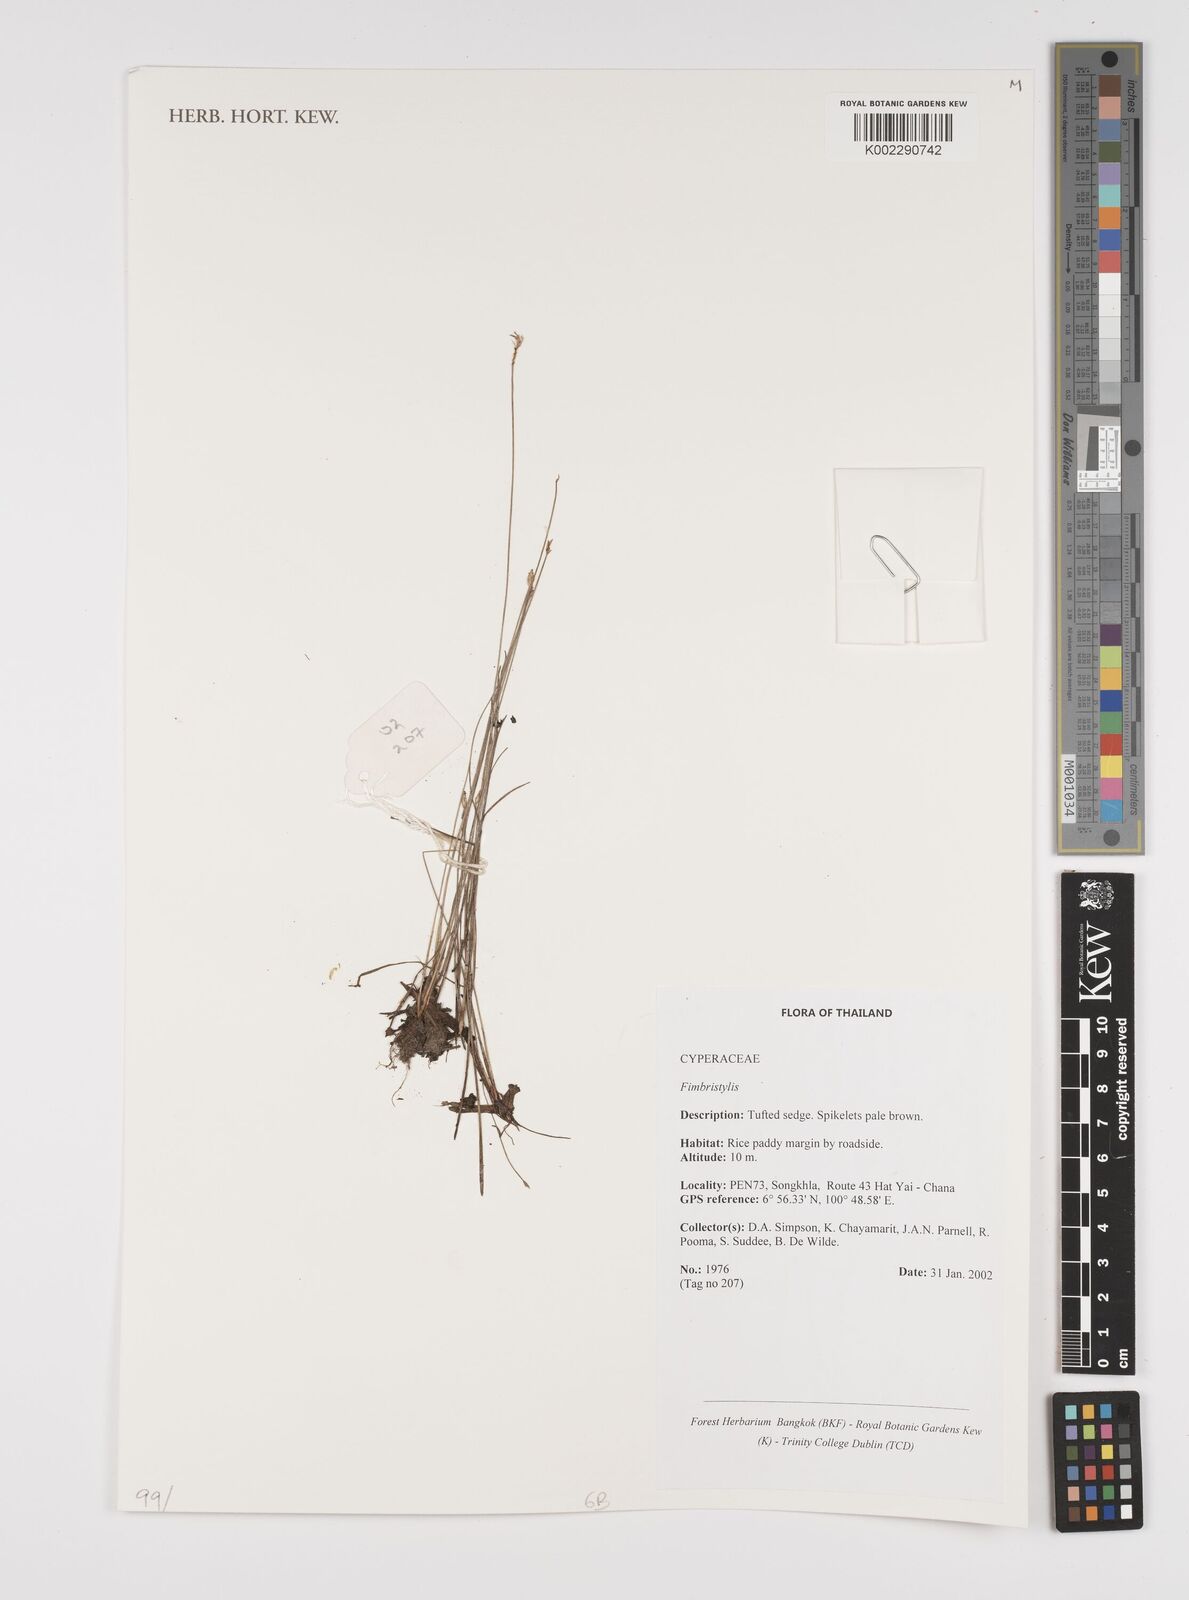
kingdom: Plantae
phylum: Tracheophyta
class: Liliopsida
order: Poales
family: Cyperaceae
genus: Fimbristylis
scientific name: Fimbristylis
